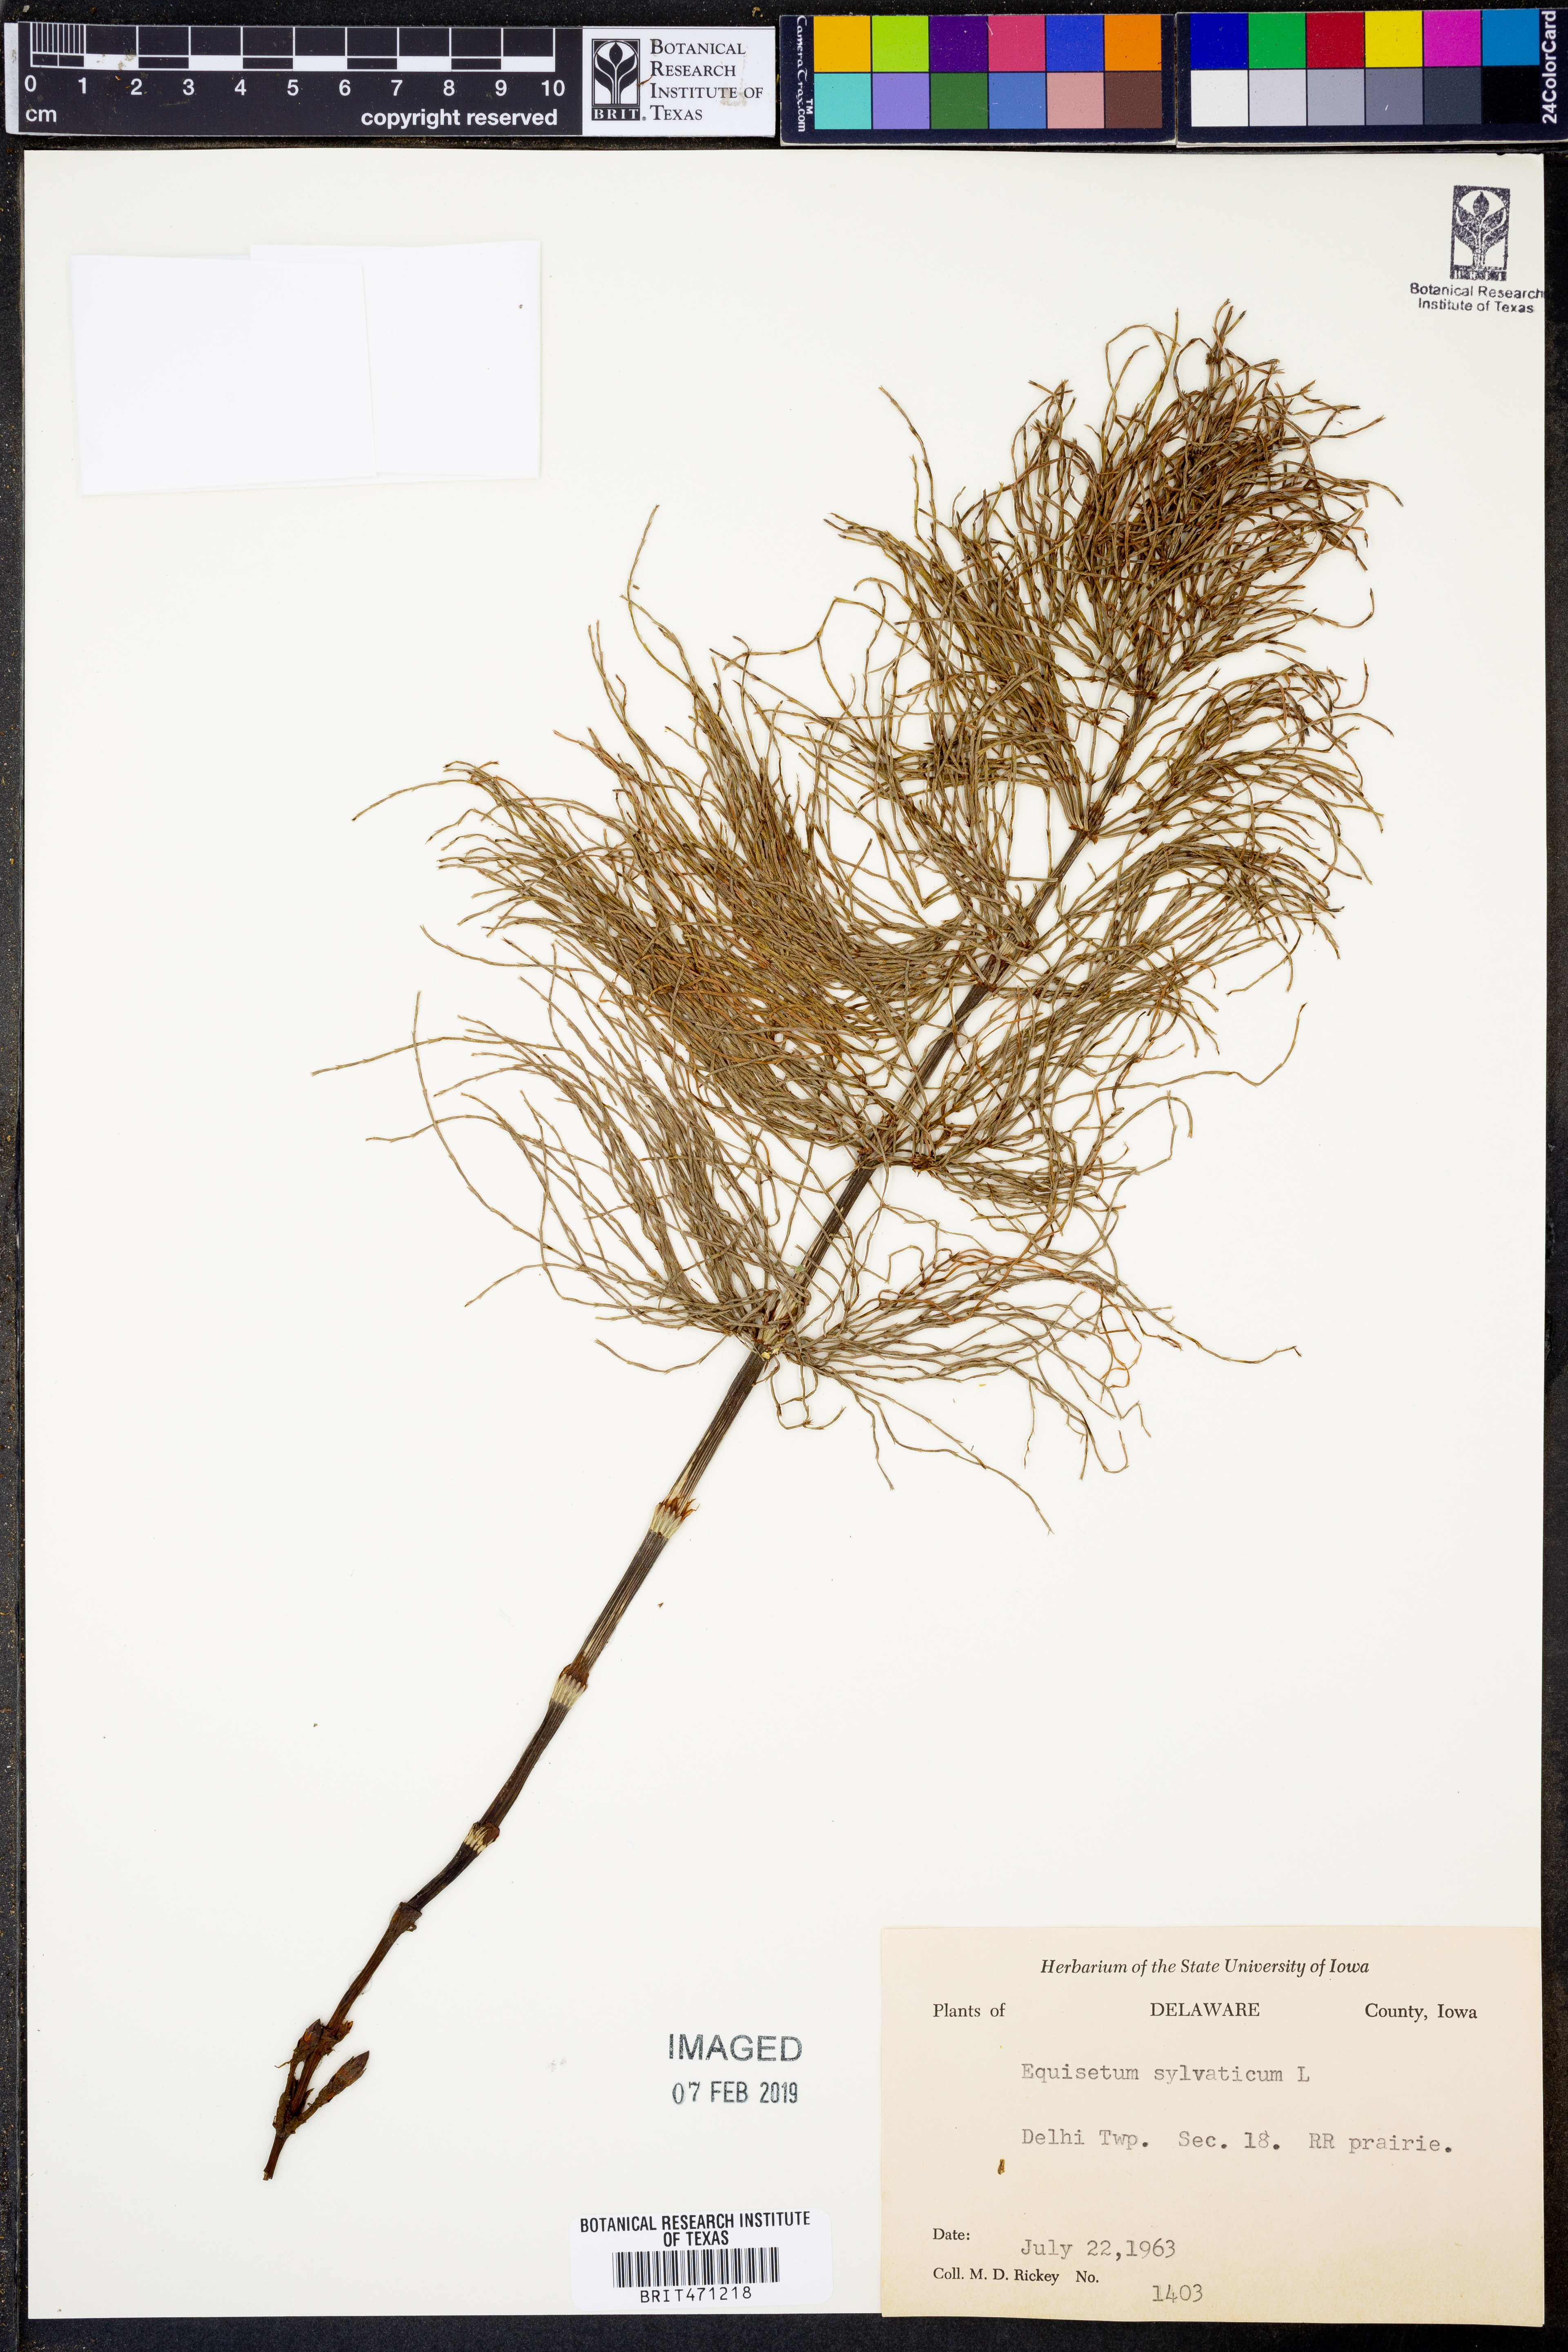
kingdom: Plantae
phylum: Tracheophyta
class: Polypodiopsida
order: Equisetales
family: Equisetaceae
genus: Equisetum
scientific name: Equisetum sylvaticum
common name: Wood horsetail
